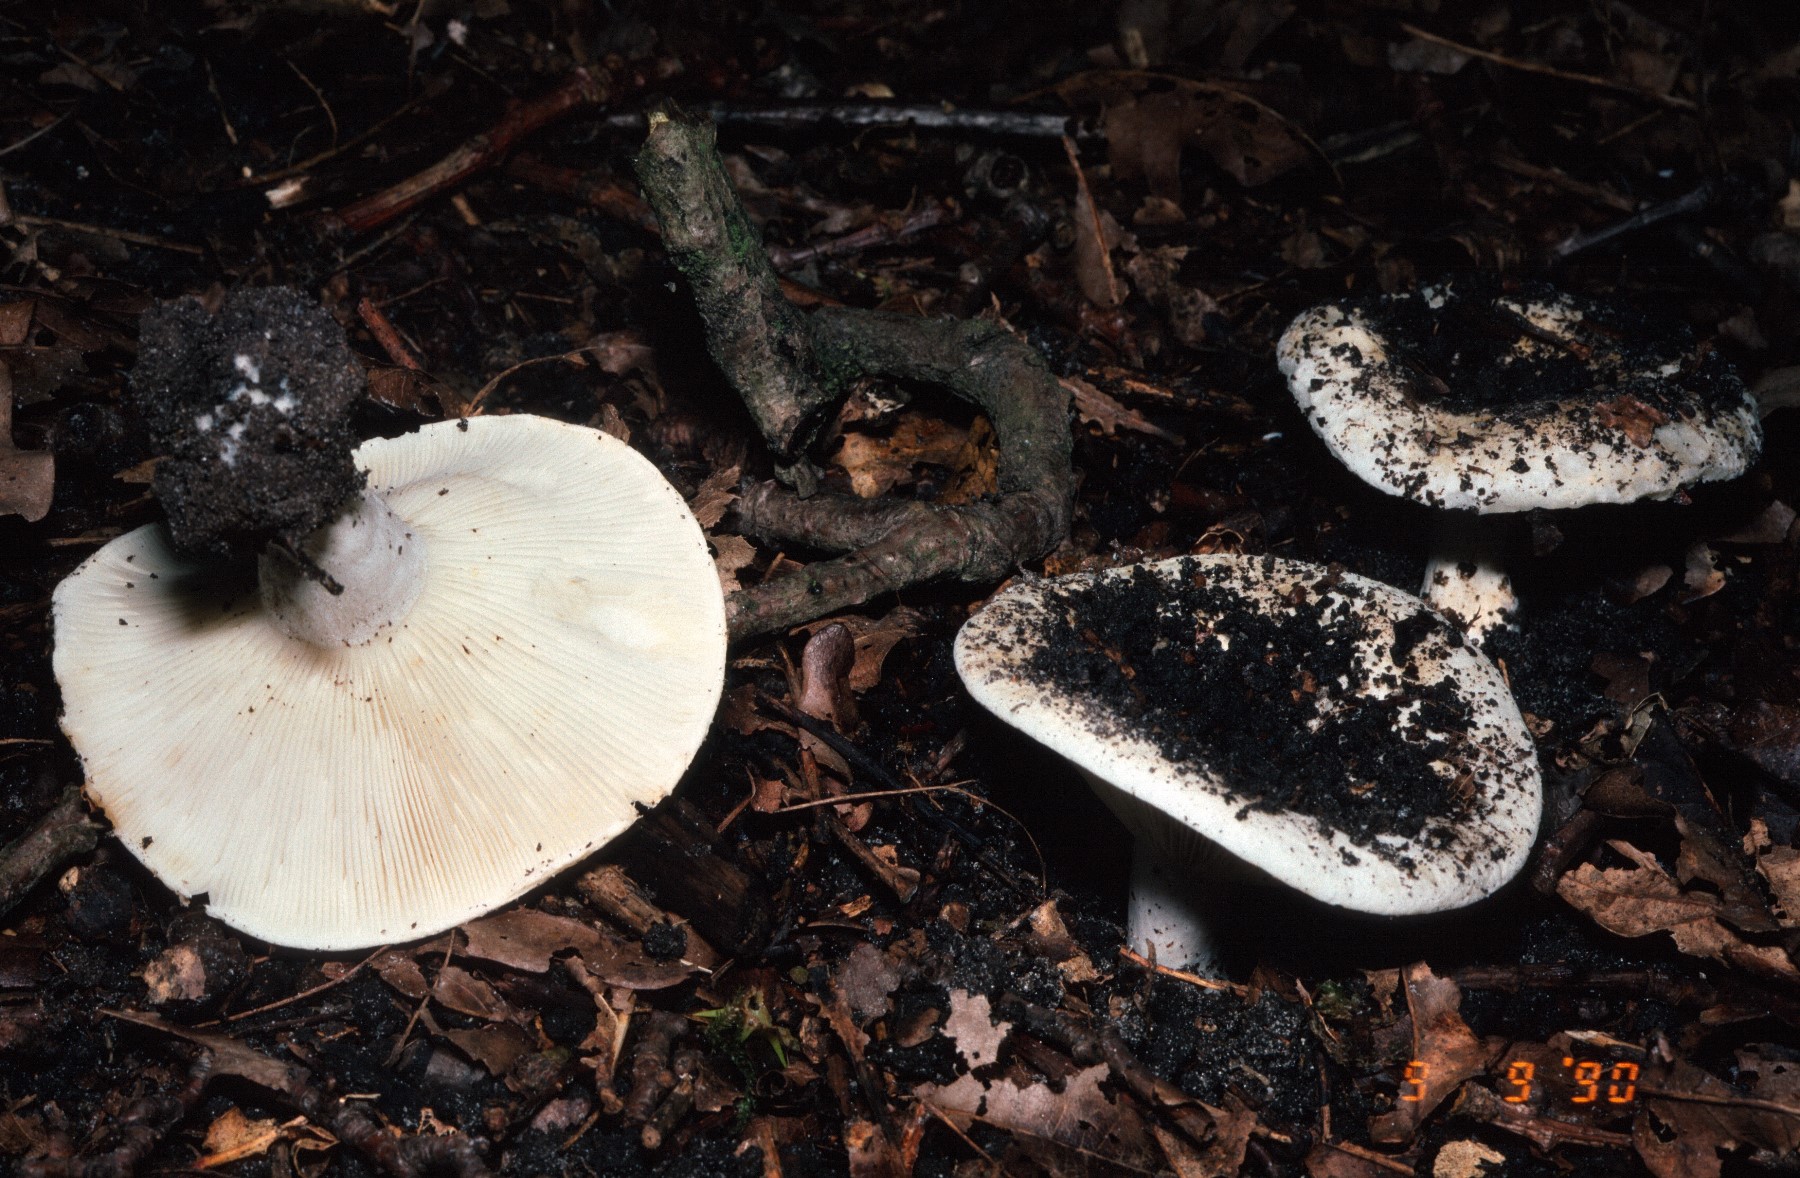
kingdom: Fungi
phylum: Basidiomycota
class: Agaricomycetes
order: Russulales
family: Russulaceae
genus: Lactifluus
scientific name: Lactifluus vellereus
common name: hvidfiltet mælkehat
